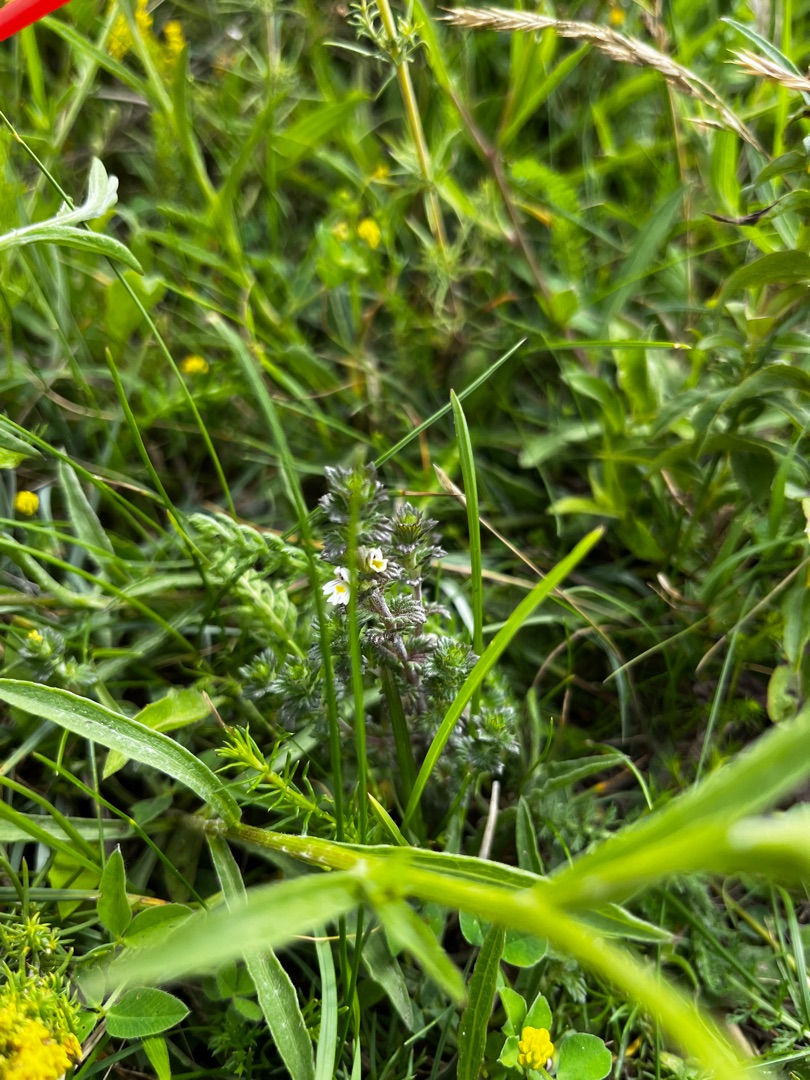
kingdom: Plantae
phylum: Tracheophyta
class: Magnoliopsida
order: Lamiales
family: Orobanchaceae
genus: Euphrasia
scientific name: Euphrasia nemorosa
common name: Kort øjentrøst
